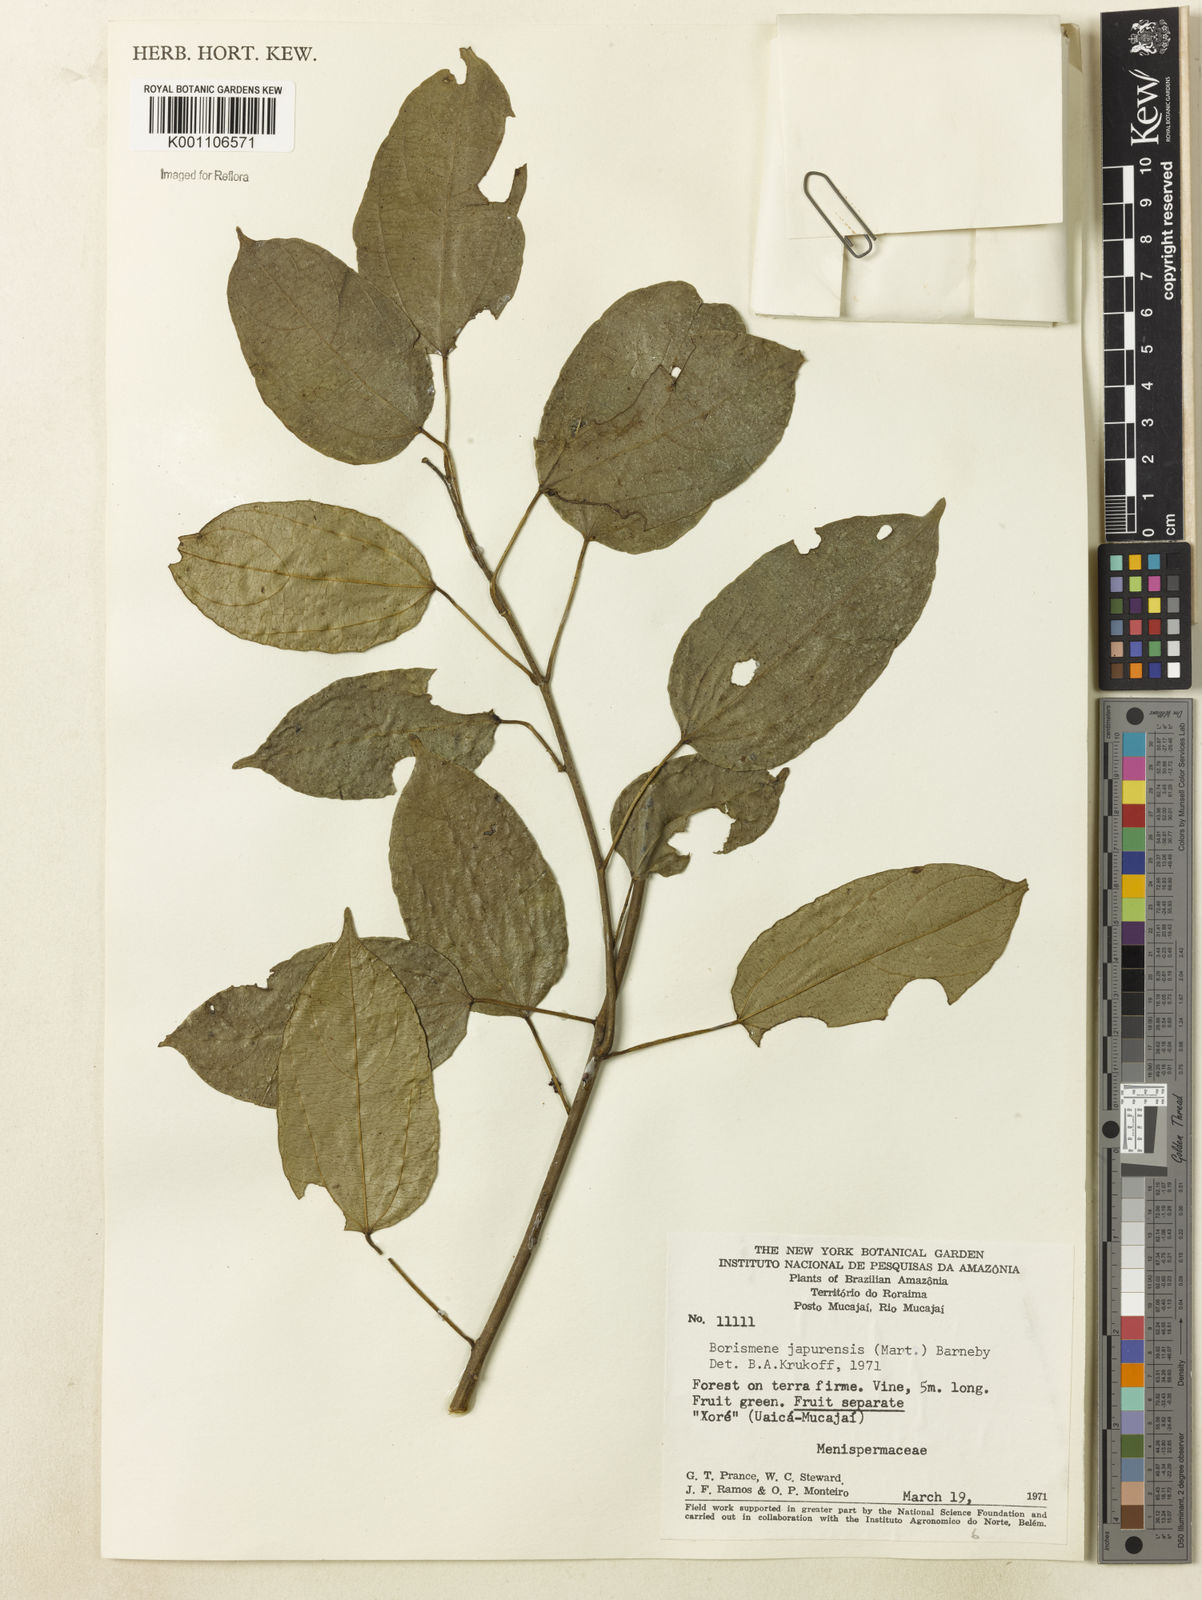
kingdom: Plantae
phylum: Tracheophyta
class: Magnoliopsida
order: Ranunculales
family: Menispermaceae
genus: Borismene
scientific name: Borismene japurensis
